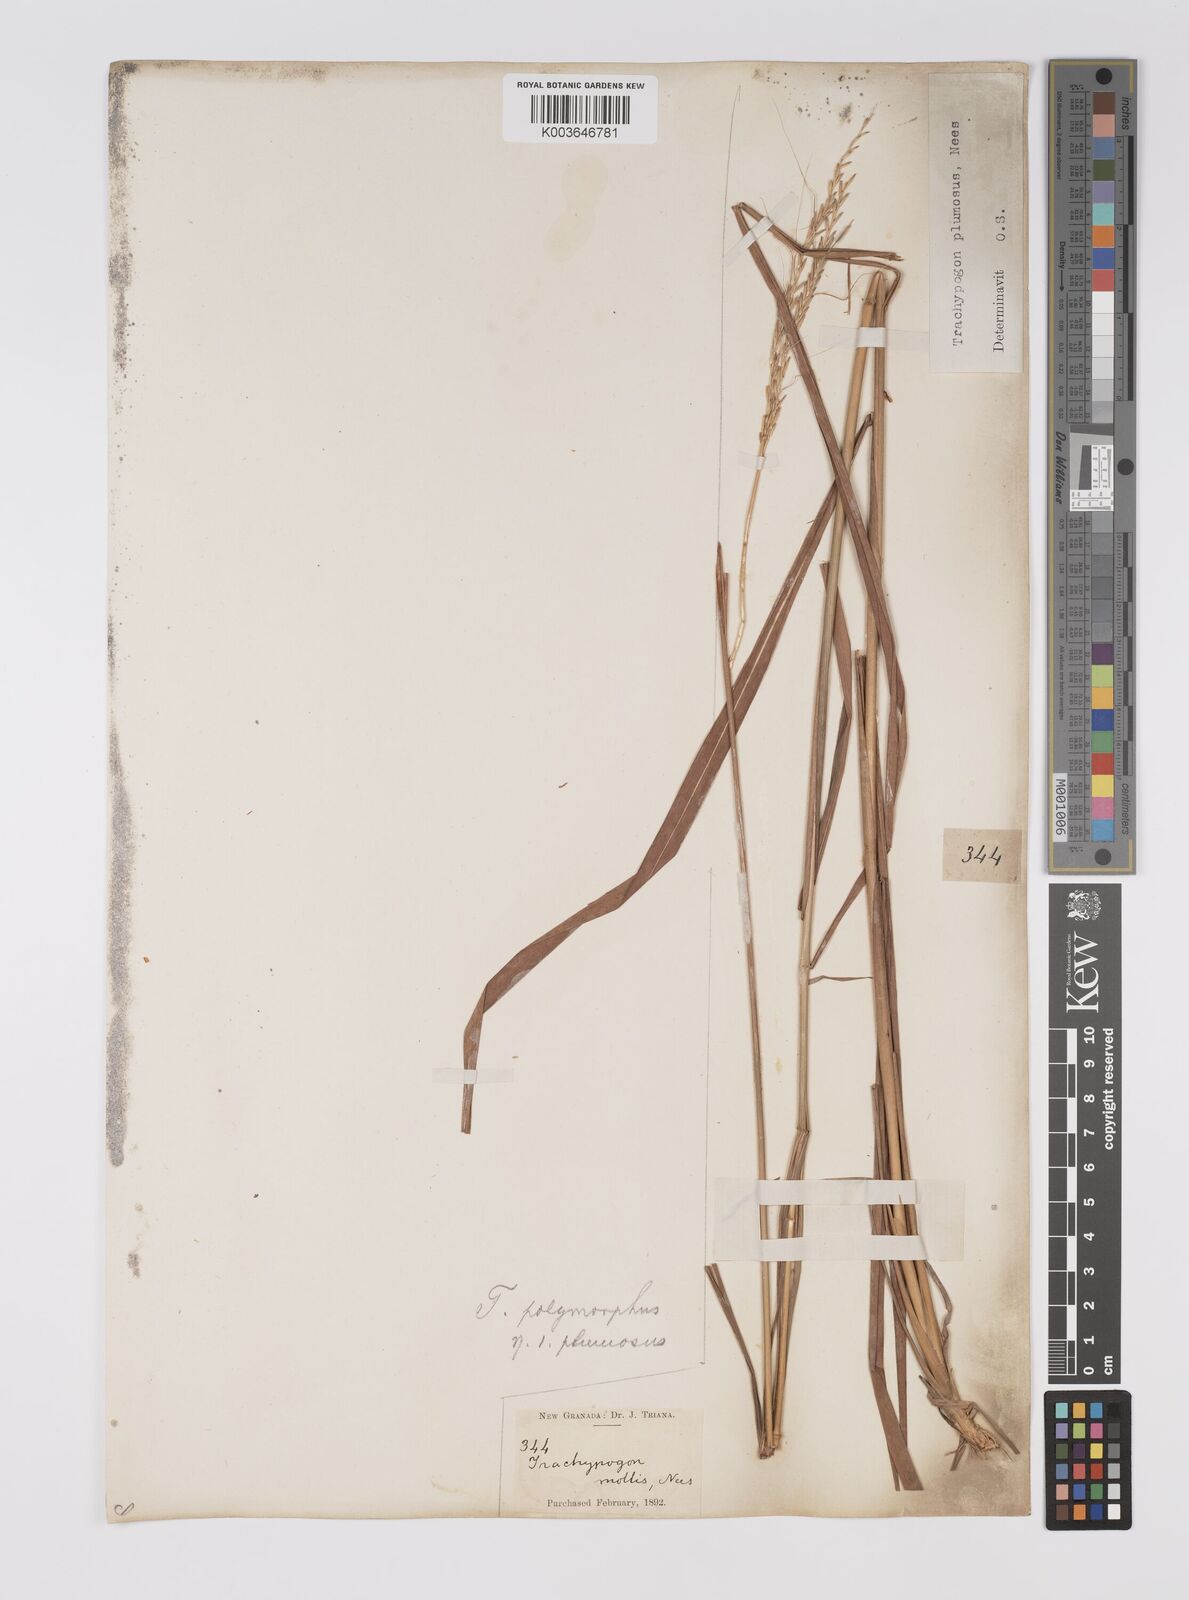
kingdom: Plantae
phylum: Tracheophyta
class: Liliopsida
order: Poales
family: Poaceae
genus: Trachypogon
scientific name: Trachypogon spicatus
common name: Crinkle-awn
